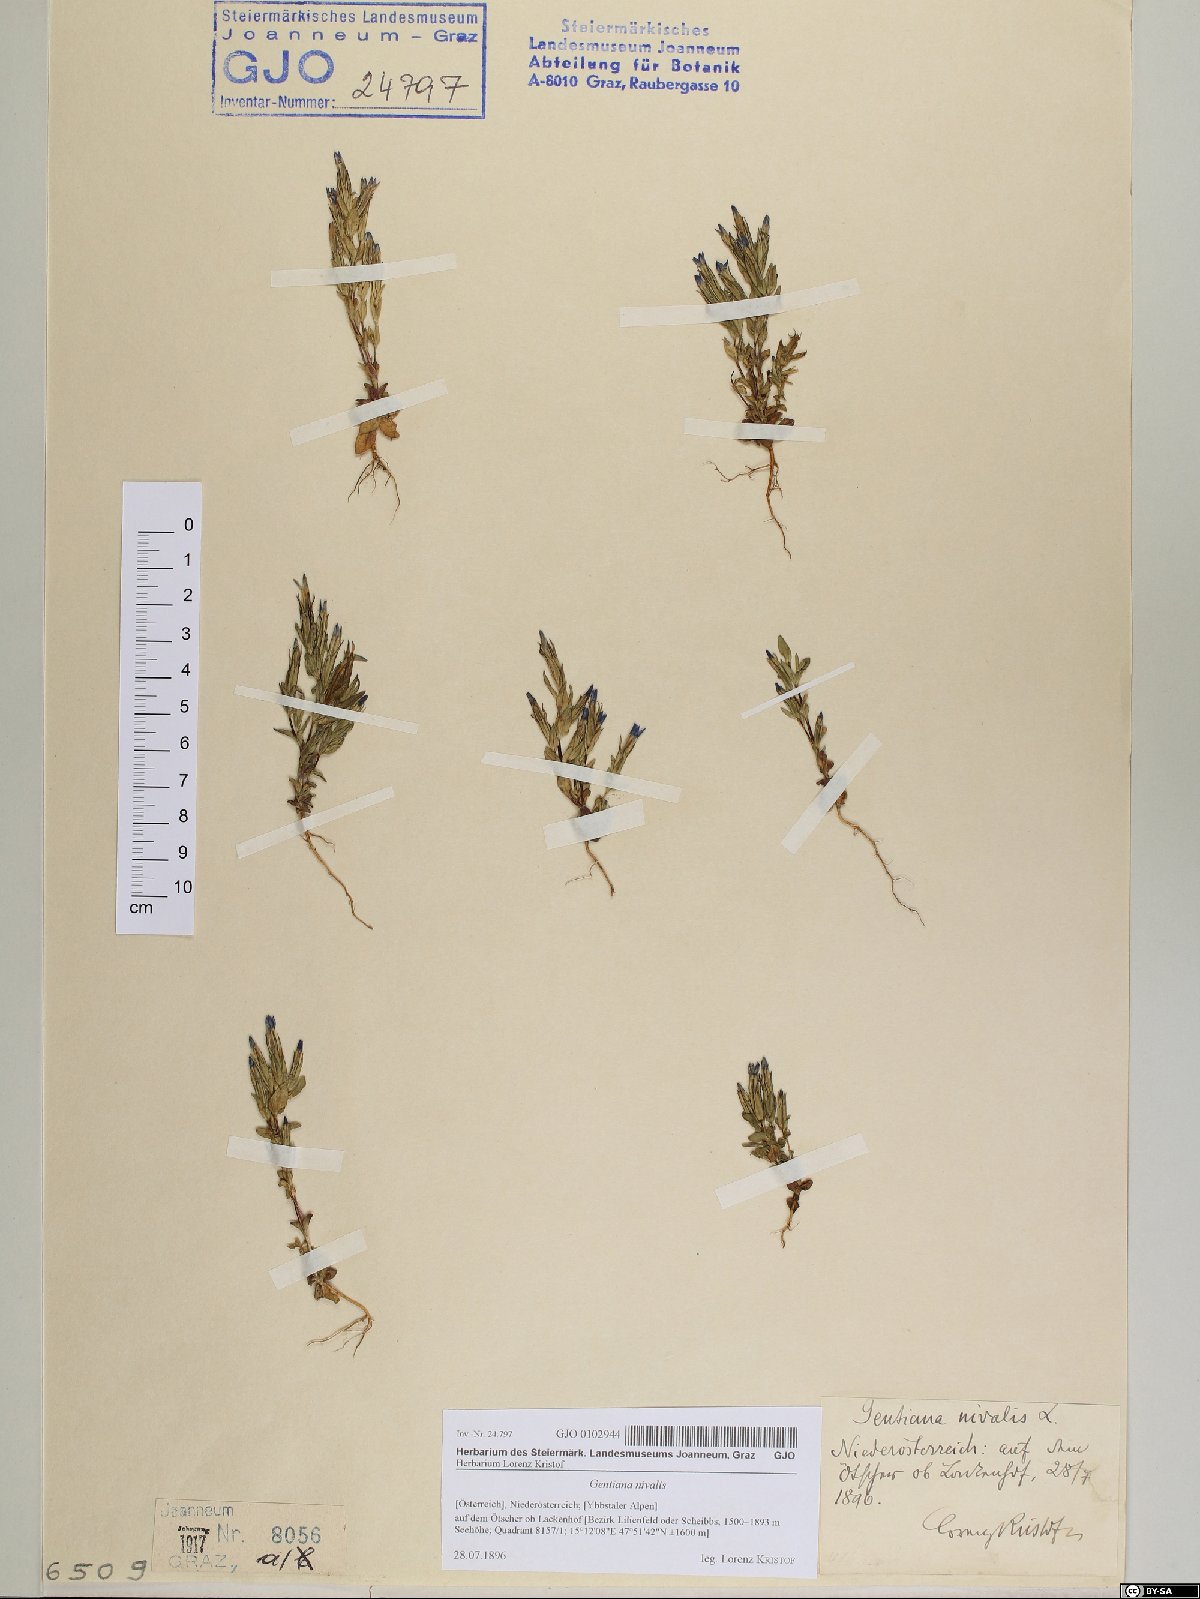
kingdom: Plantae
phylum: Tracheophyta
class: Magnoliopsida
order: Gentianales
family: Gentianaceae
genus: Gentiana
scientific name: Gentiana nivalis
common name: Alpine gentian
